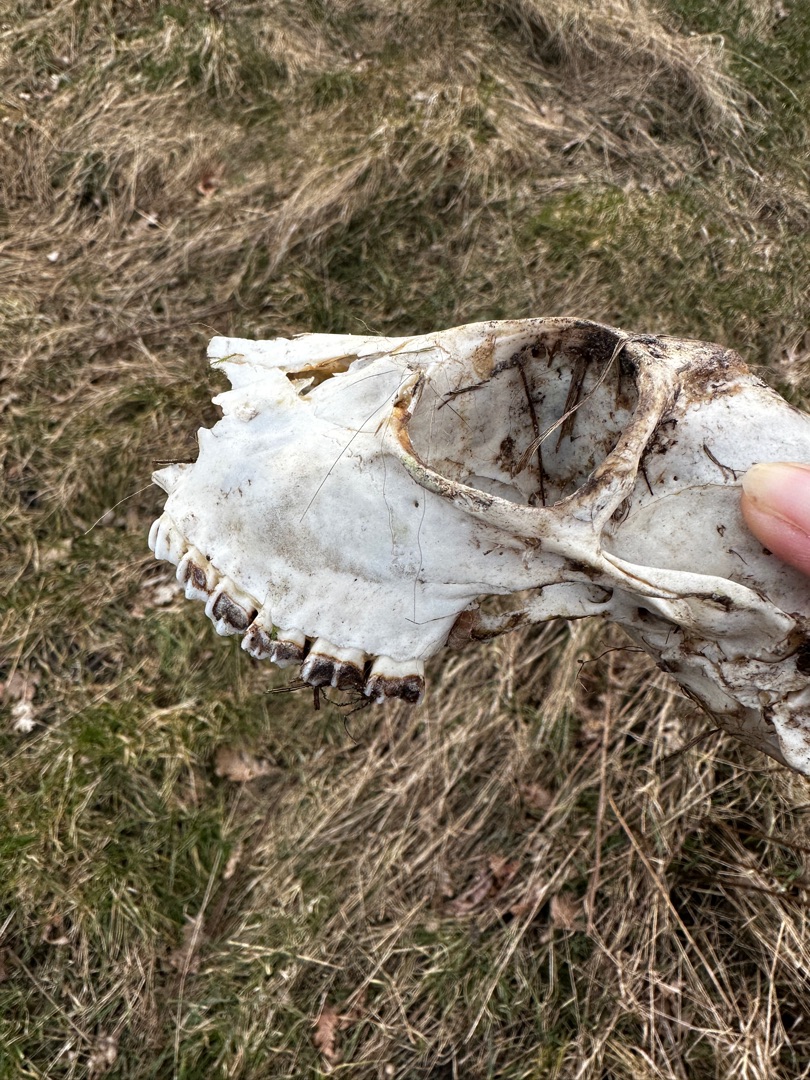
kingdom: Animalia
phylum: Chordata
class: Mammalia
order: Artiodactyla
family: Cervidae
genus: Capreolus
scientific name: Capreolus capreolus
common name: Rådyr
